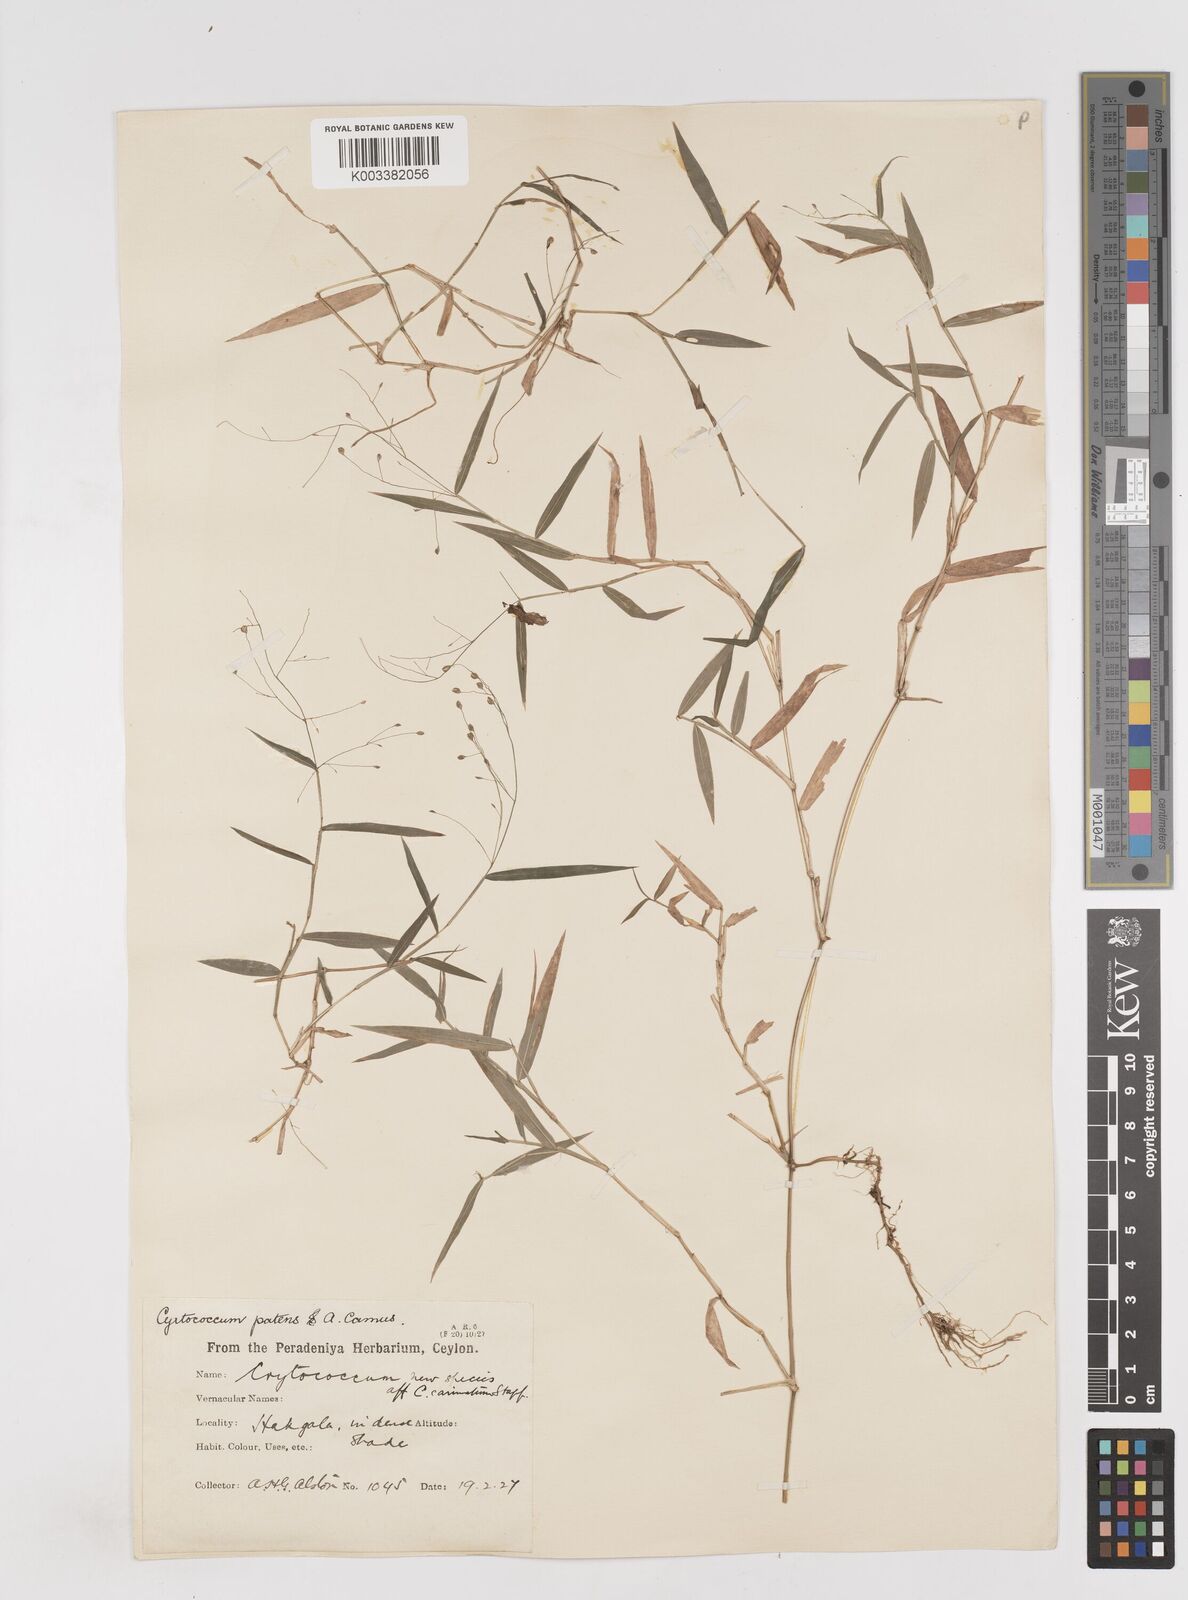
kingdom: Plantae
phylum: Tracheophyta
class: Liliopsida
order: Poales
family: Poaceae
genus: Cyrtococcum
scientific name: Cyrtococcum deccanense
